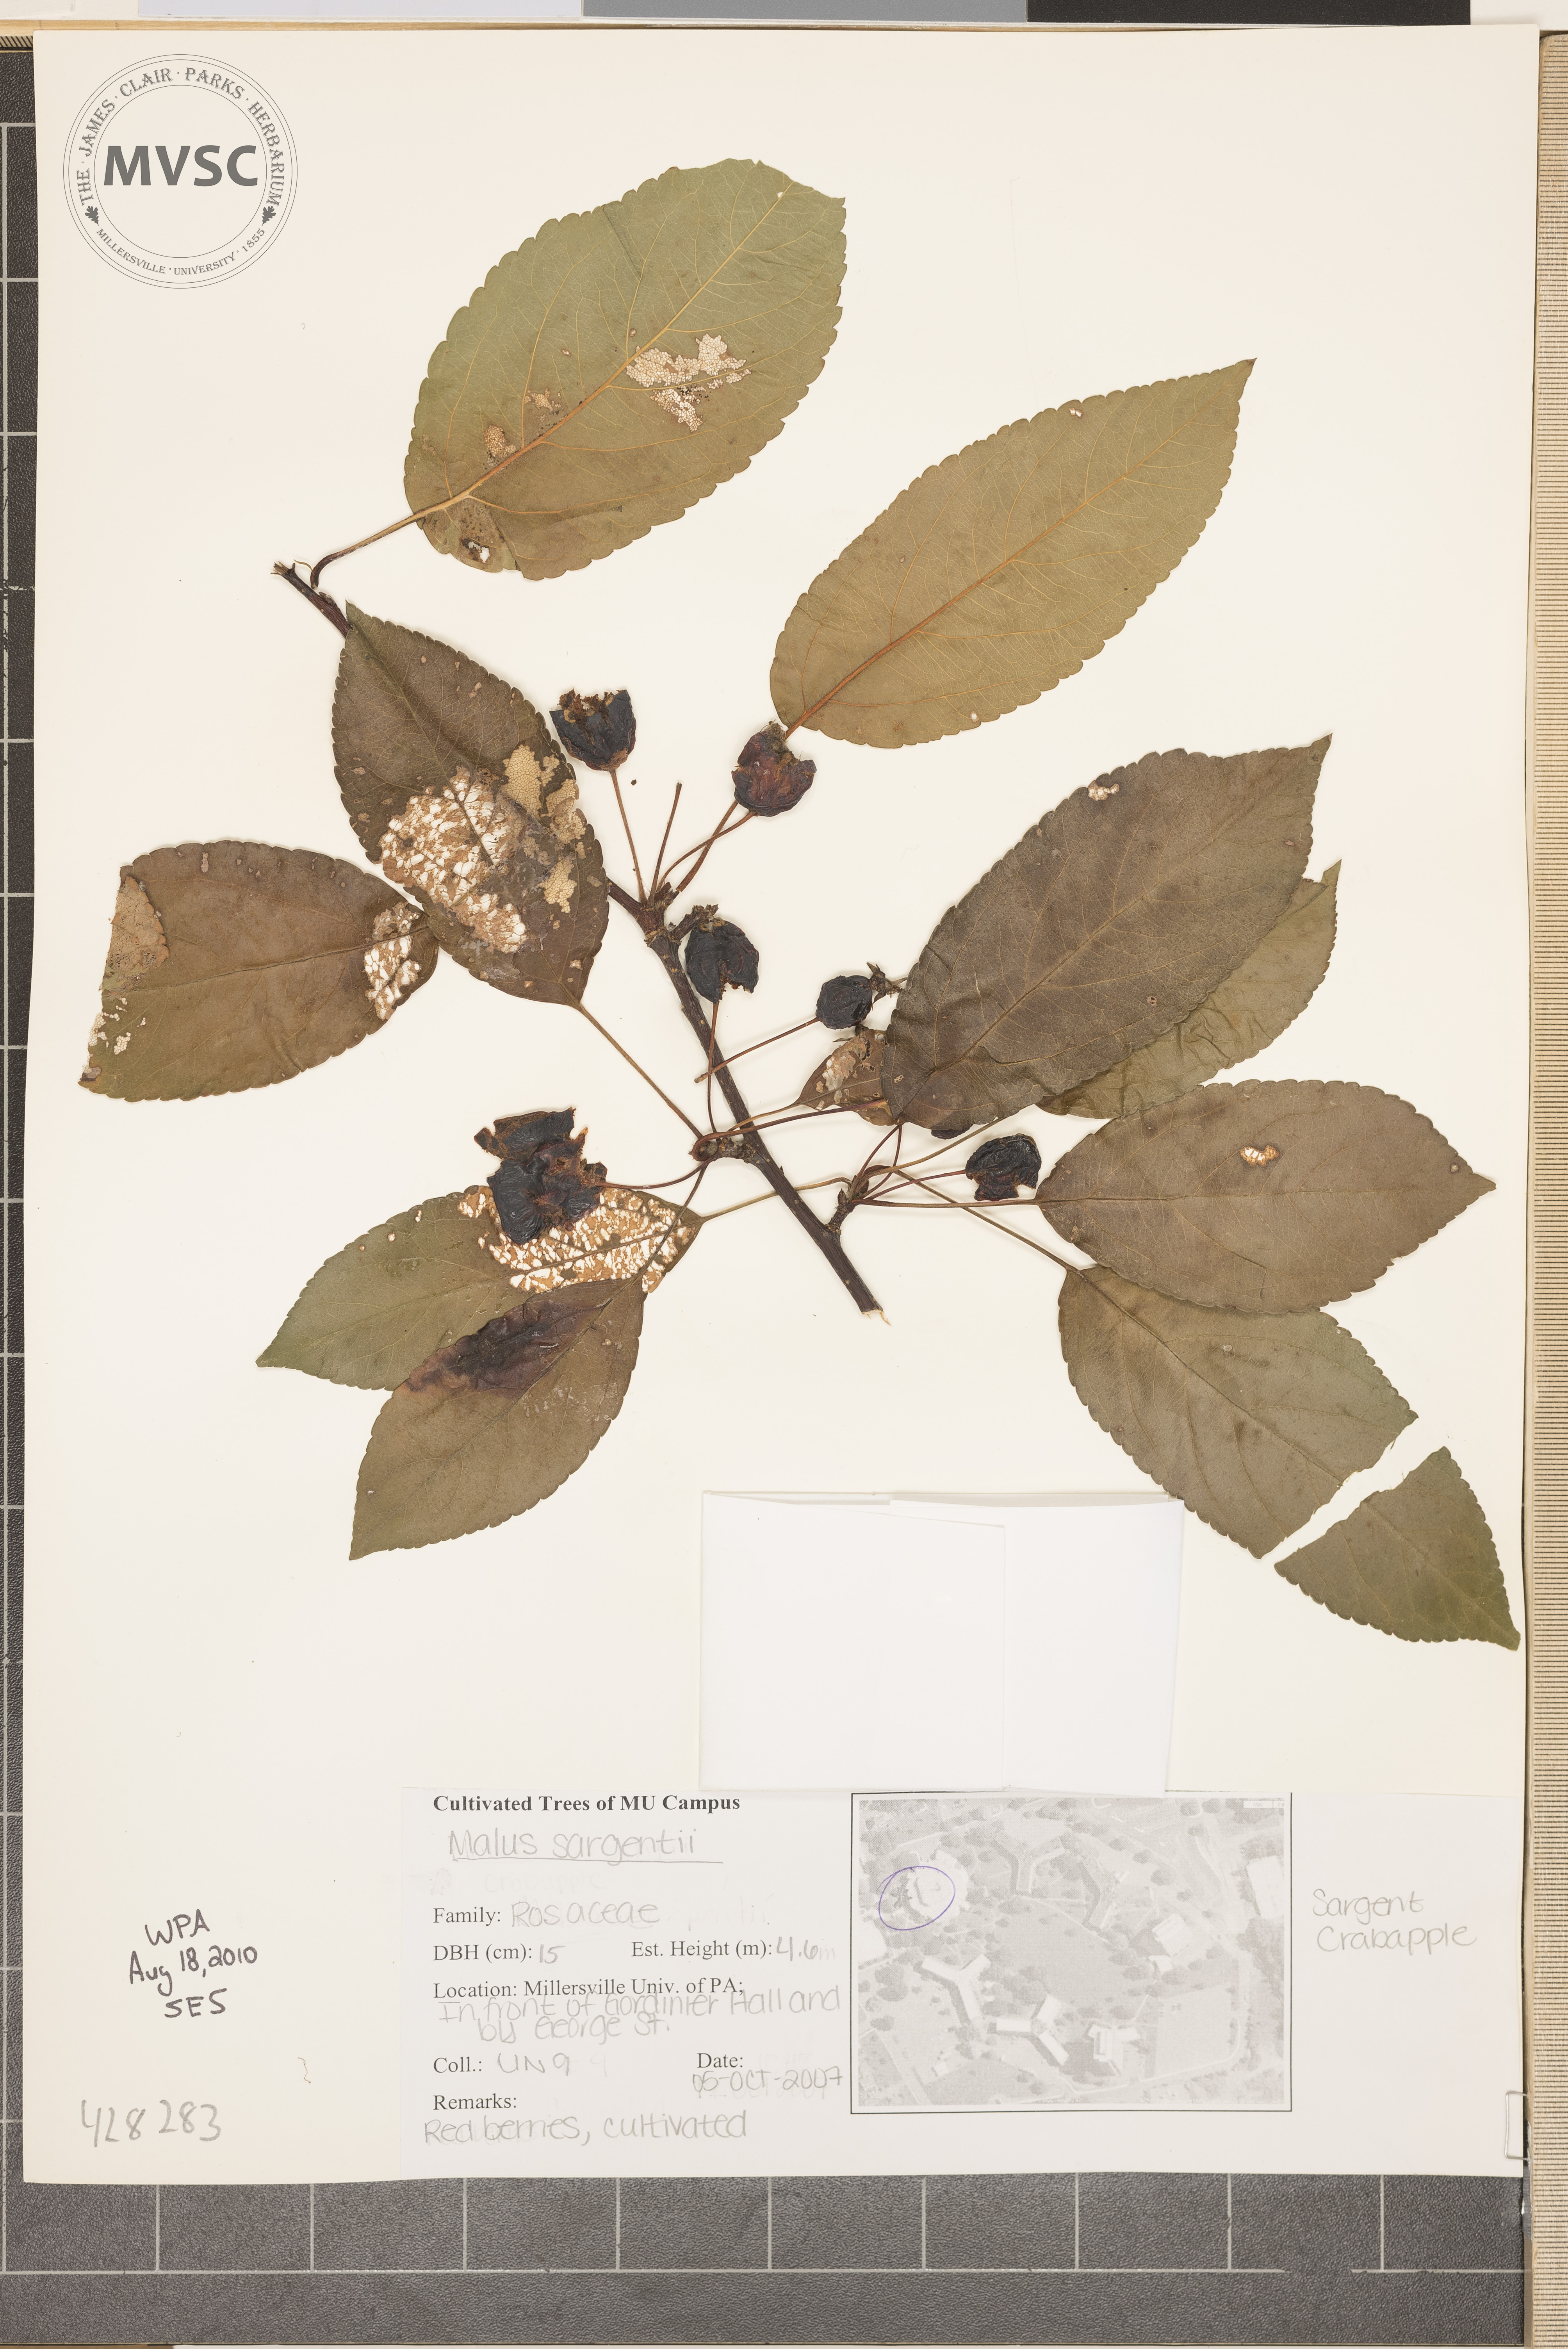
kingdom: Plantae
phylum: Tracheophyta
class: Magnoliopsida
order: Rosales
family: Rosaceae
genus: Malus
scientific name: Malus toringo
